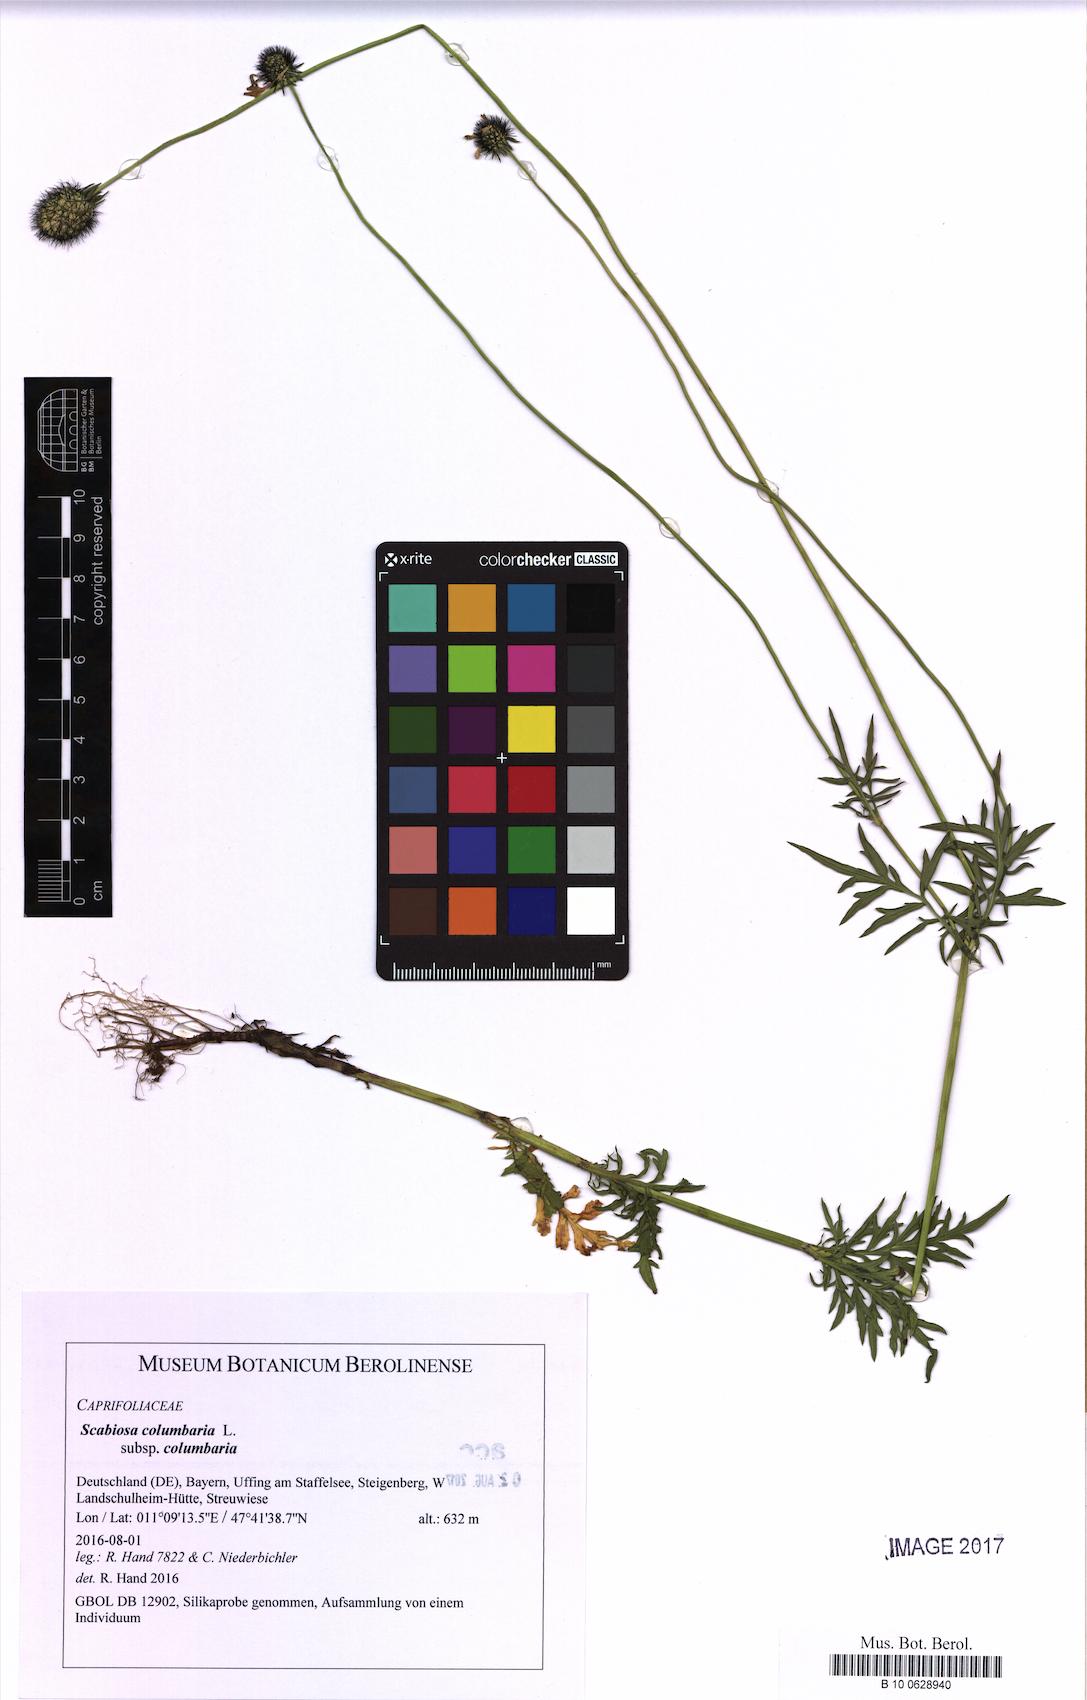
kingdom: Plantae
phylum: Tracheophyta
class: Magnoliopsida
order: Dipsacales
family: Caprifoliaceae
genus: Scabiosa
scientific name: Scabiosa columbaria
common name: Small scabious
